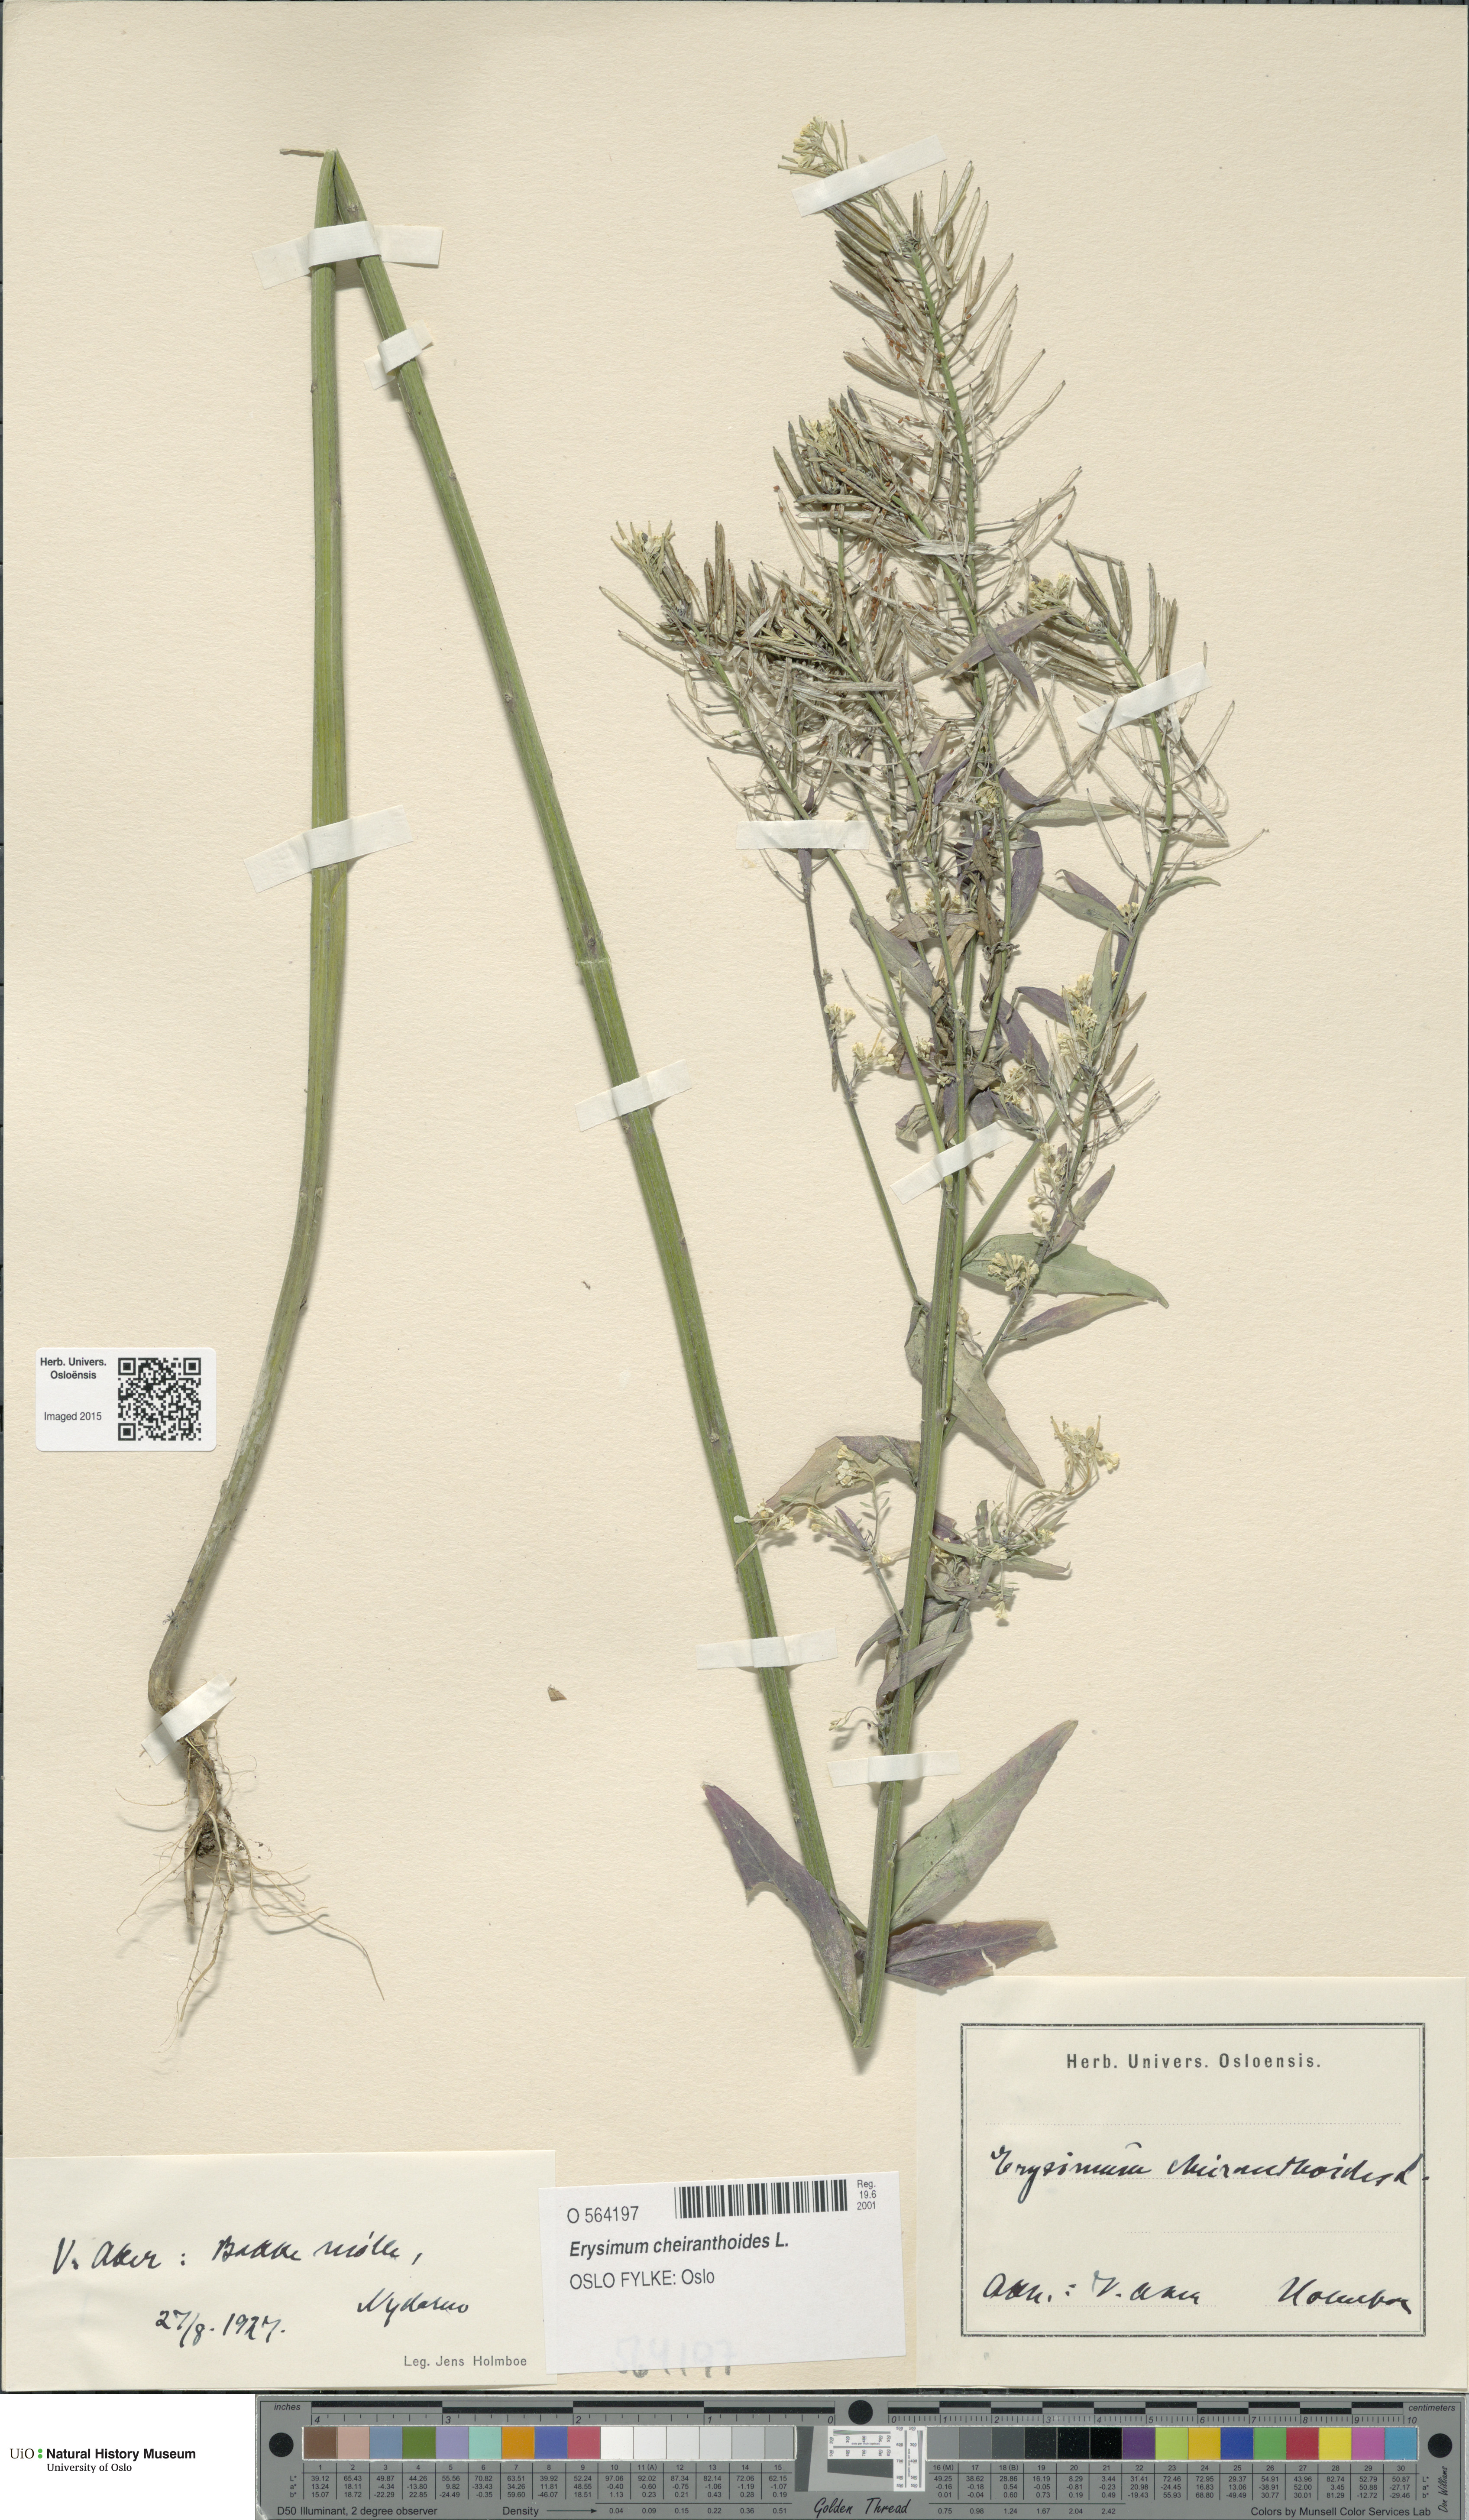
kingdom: Plantae
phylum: Tracheophyta
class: Magnoliopsida
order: Brassicales
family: Brassicaceae
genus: Erysimum
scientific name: Erysimum cheiranthoides
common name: Treacle mustard
